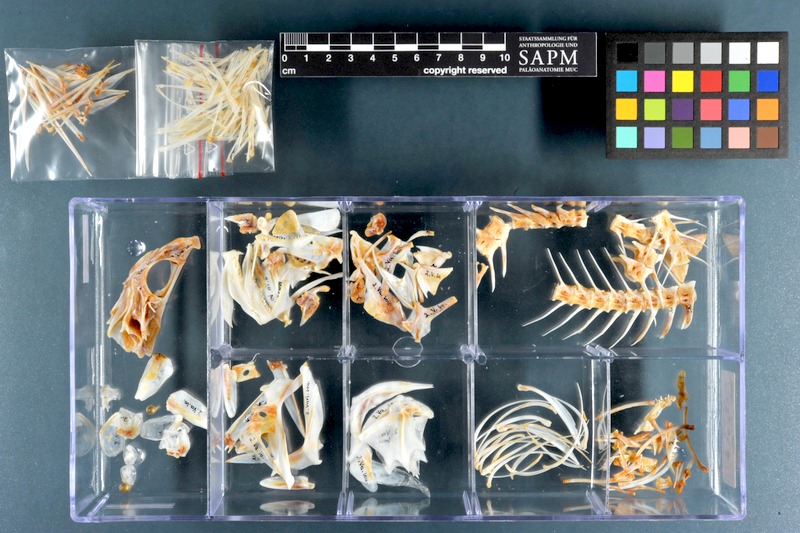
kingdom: Animalia
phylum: Chordata
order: Perciformes
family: Serranidae
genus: Variola
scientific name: Variola louti
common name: Yellow-edged lyretail
